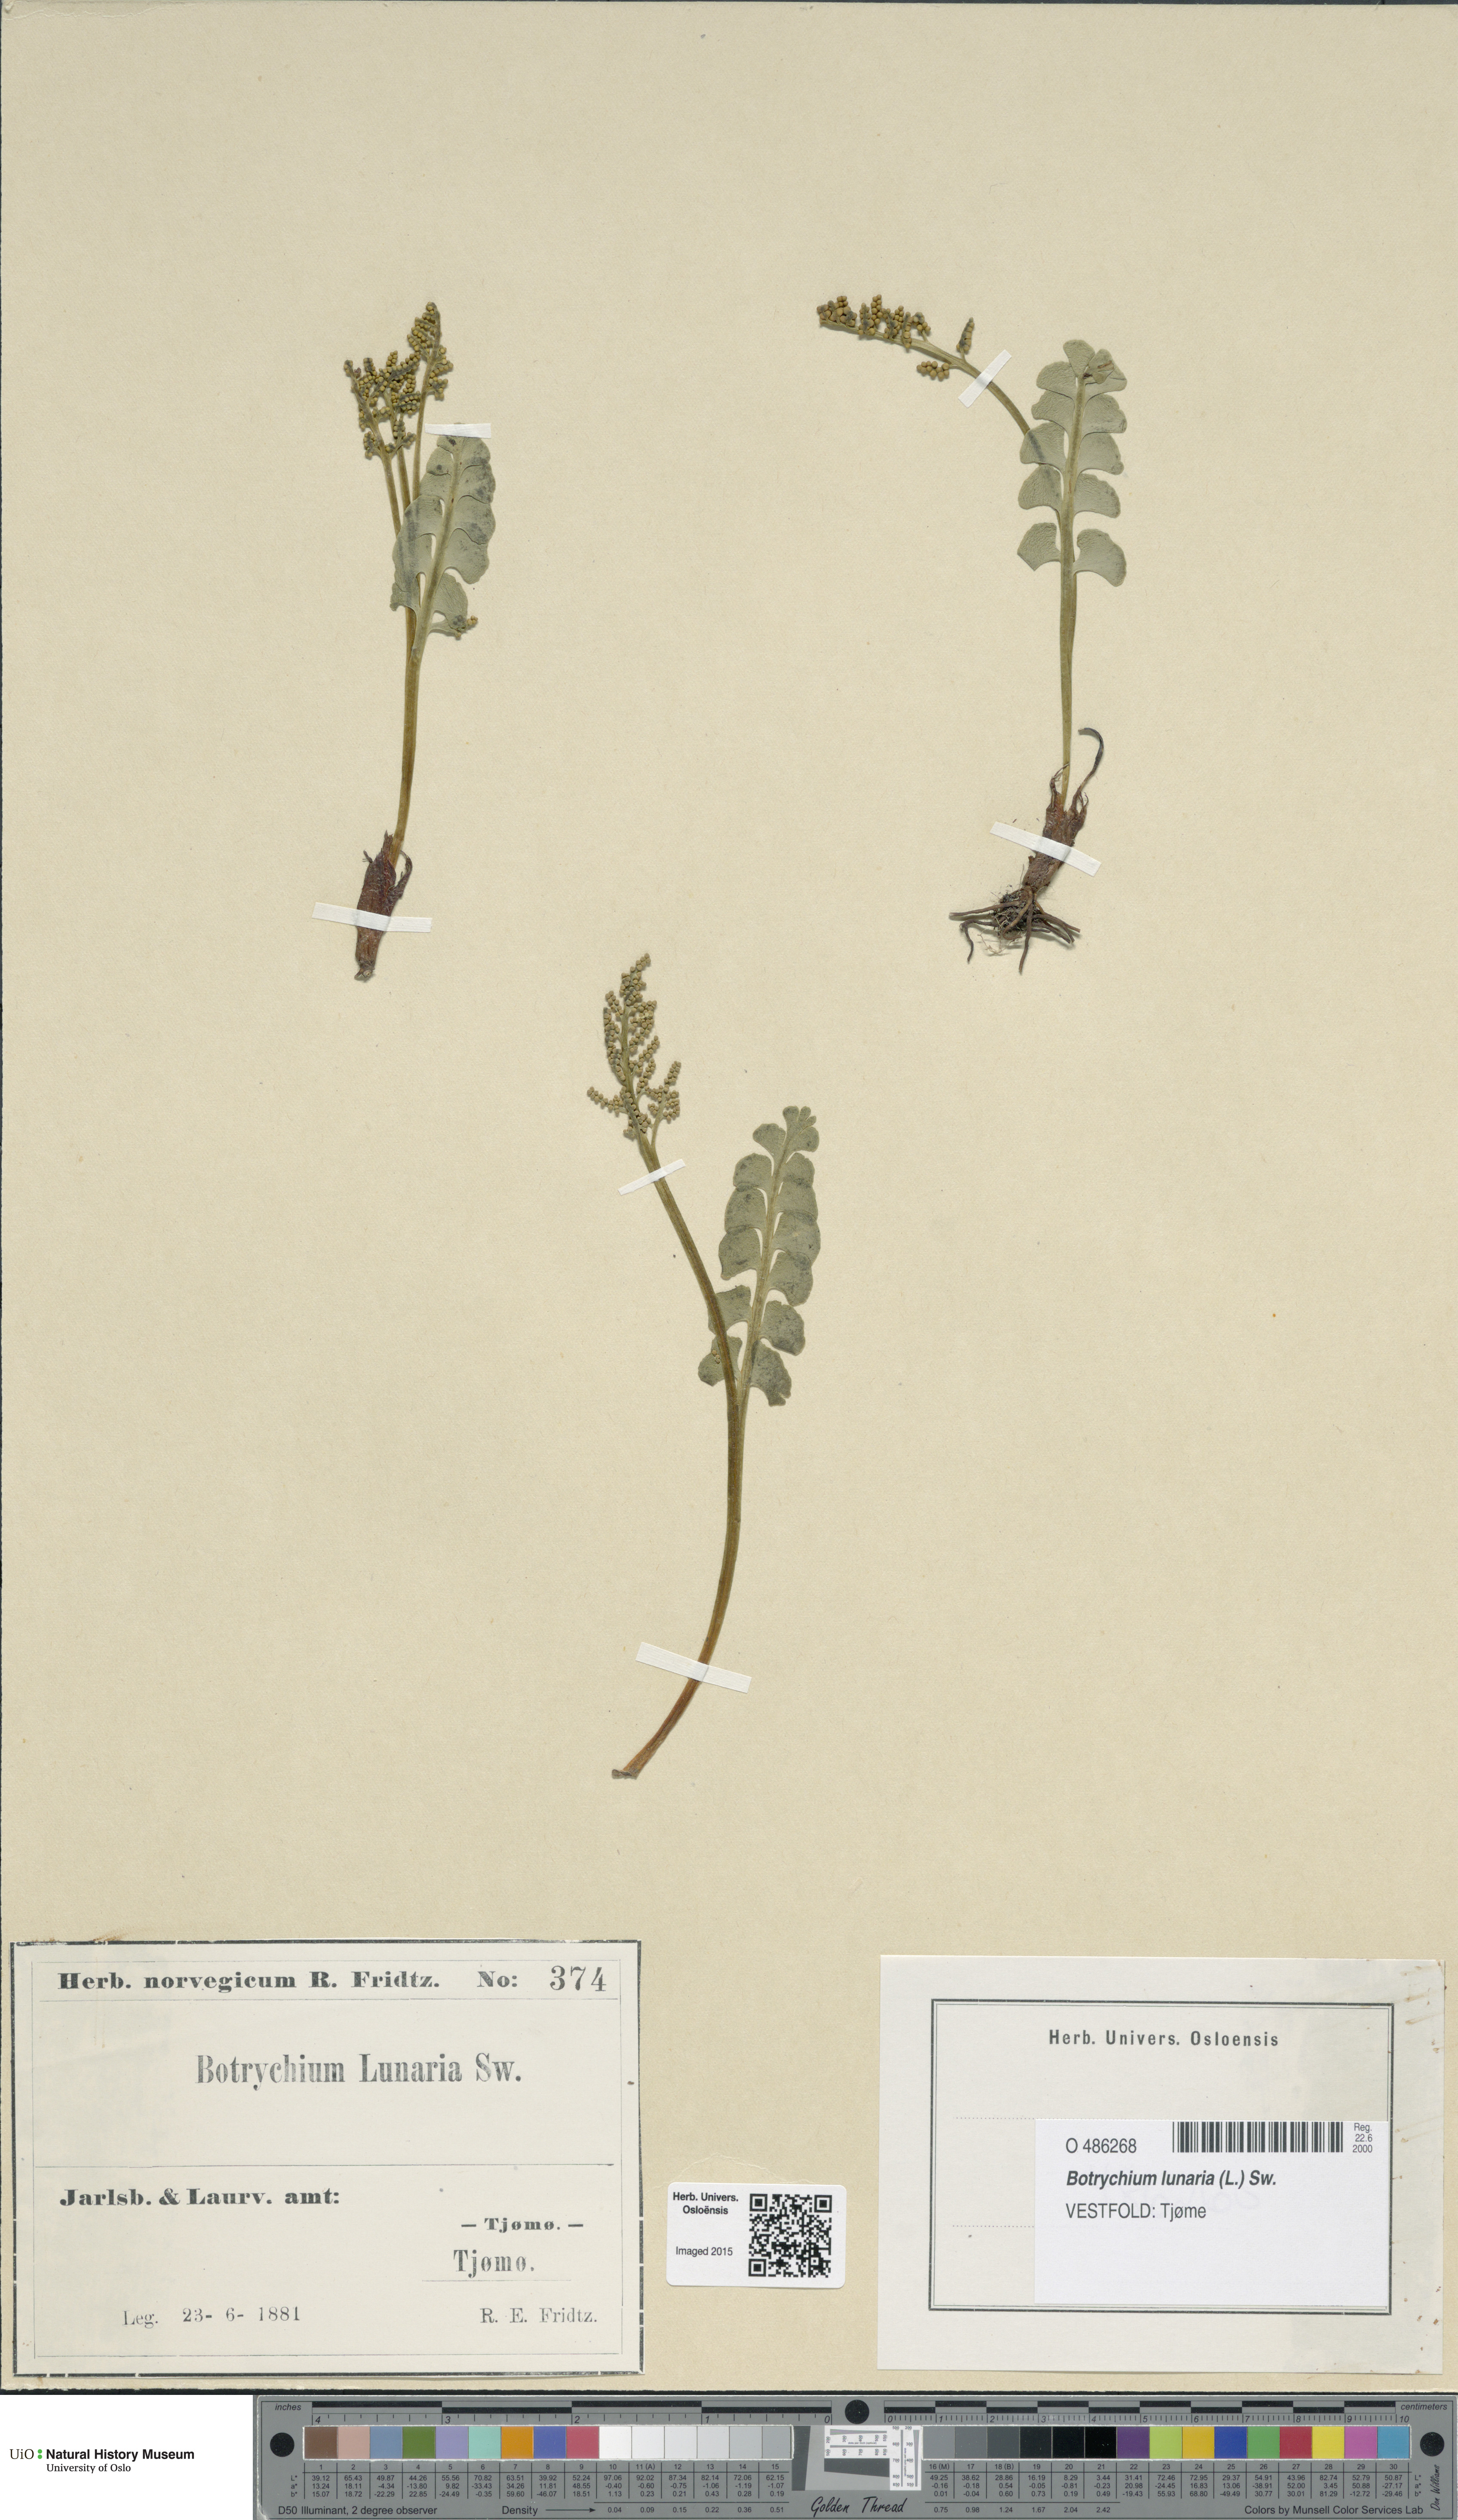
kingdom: Plantae
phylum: Tracheophyta
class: Polypodiopsida
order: Ophioglossales
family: Ophioglossaceae
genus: Botrychium
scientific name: Botrychium lunaria
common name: Moonwort
